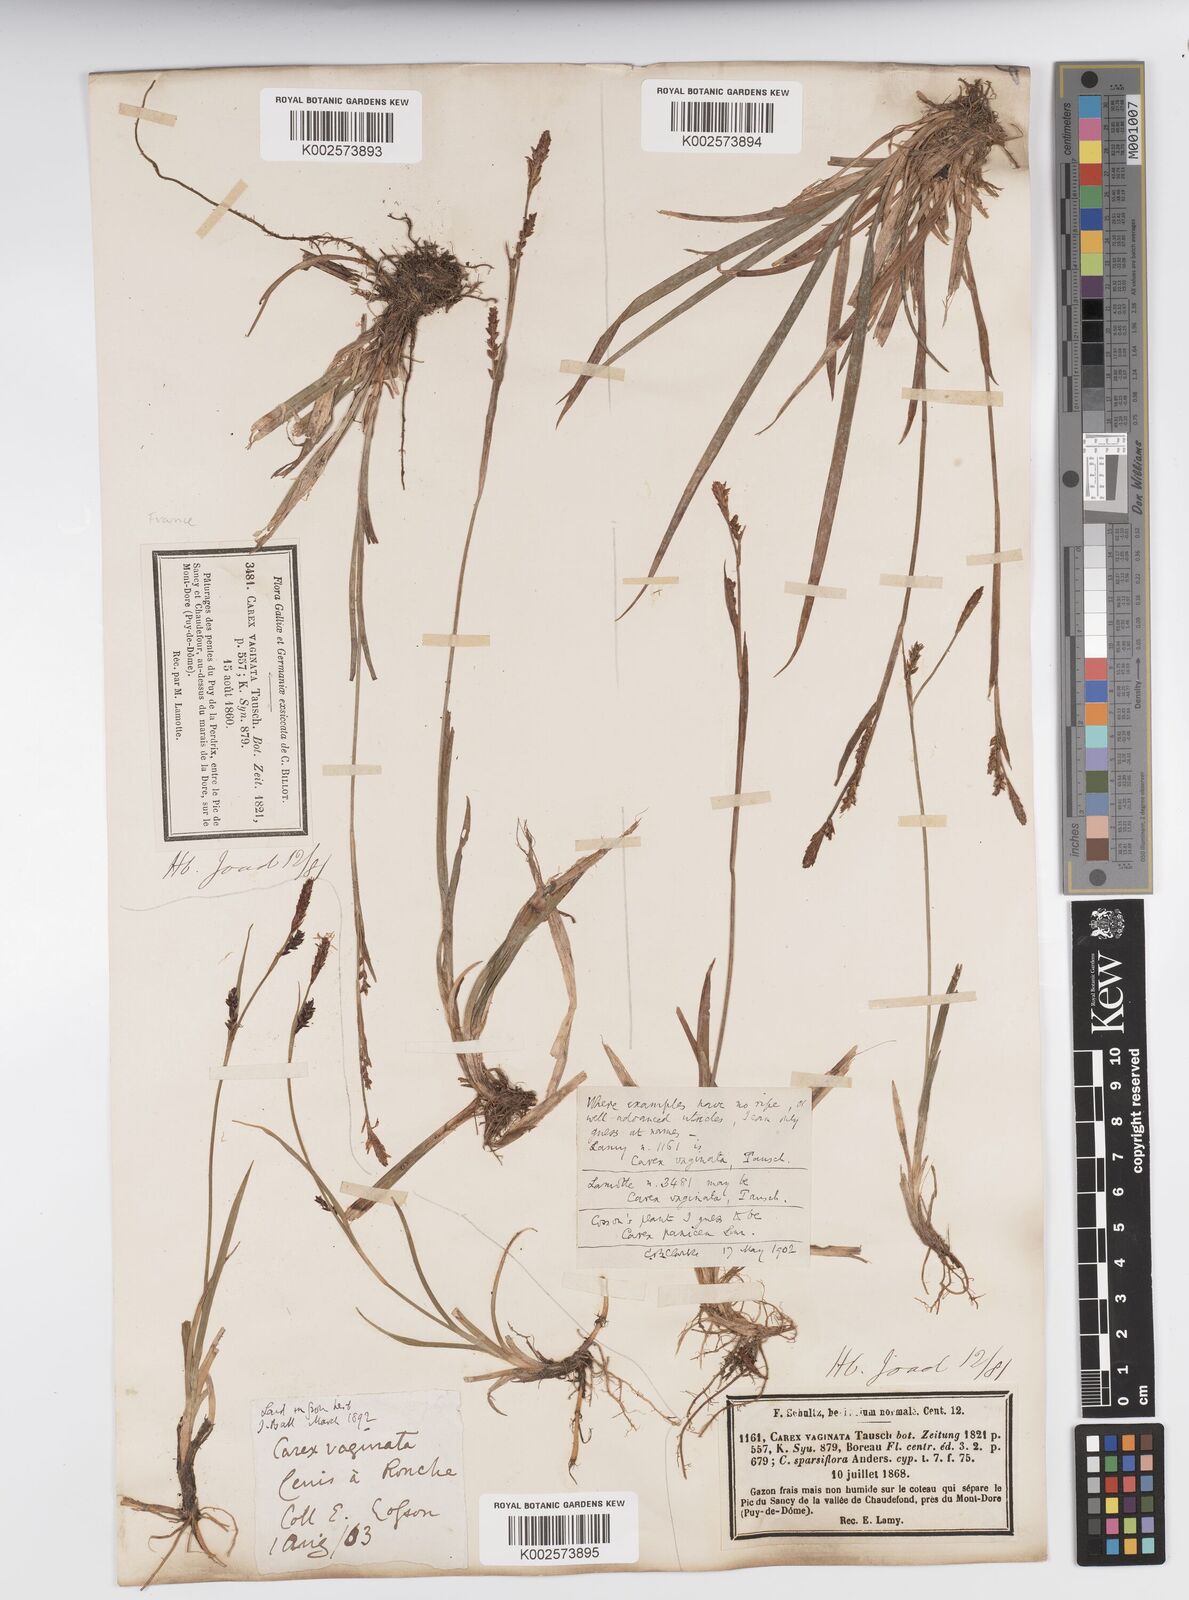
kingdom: Plantae
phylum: Tracheophyta
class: Liliopsida
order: Poales
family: Cyperaceae
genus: Carex
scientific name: Carex vaginata
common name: Sheathed sedge
